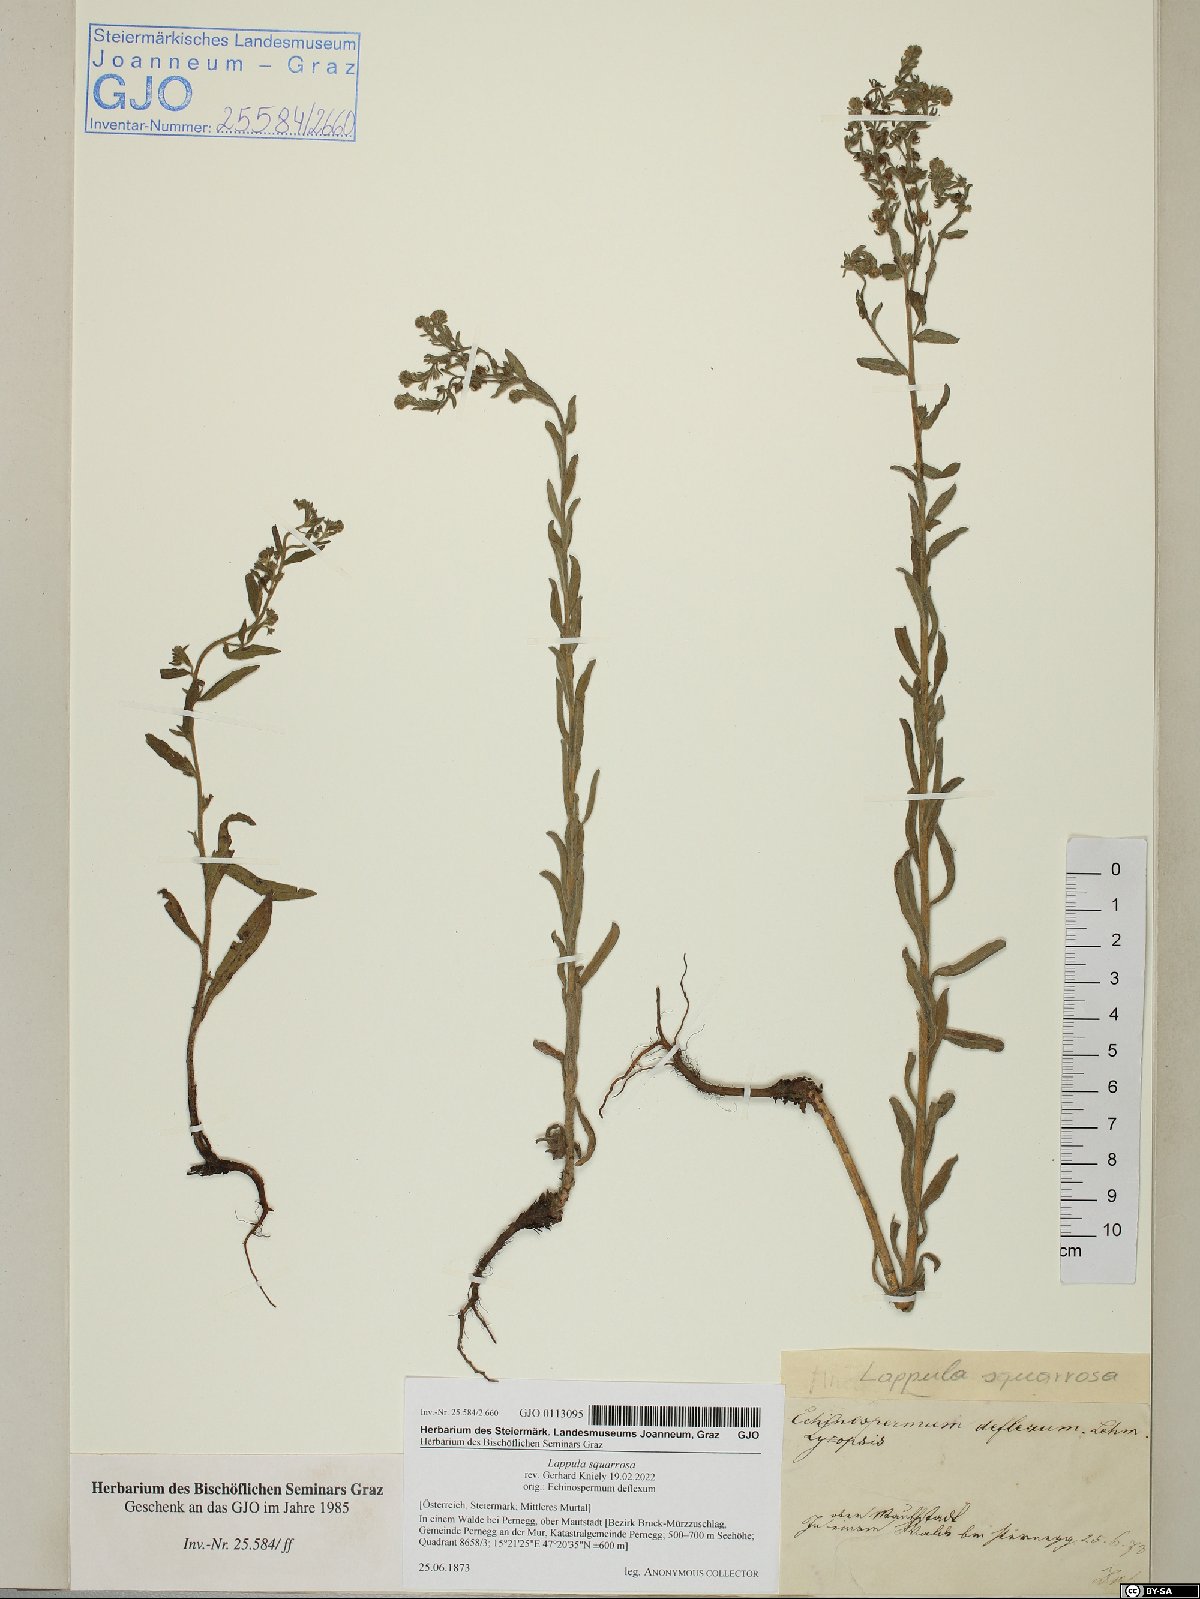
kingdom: Plantae
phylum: Tracheophyta
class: Magnoliopsida
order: Boraginales
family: Boraginaceae
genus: Lappula
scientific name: Lappula squarrosa
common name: European stickseed
